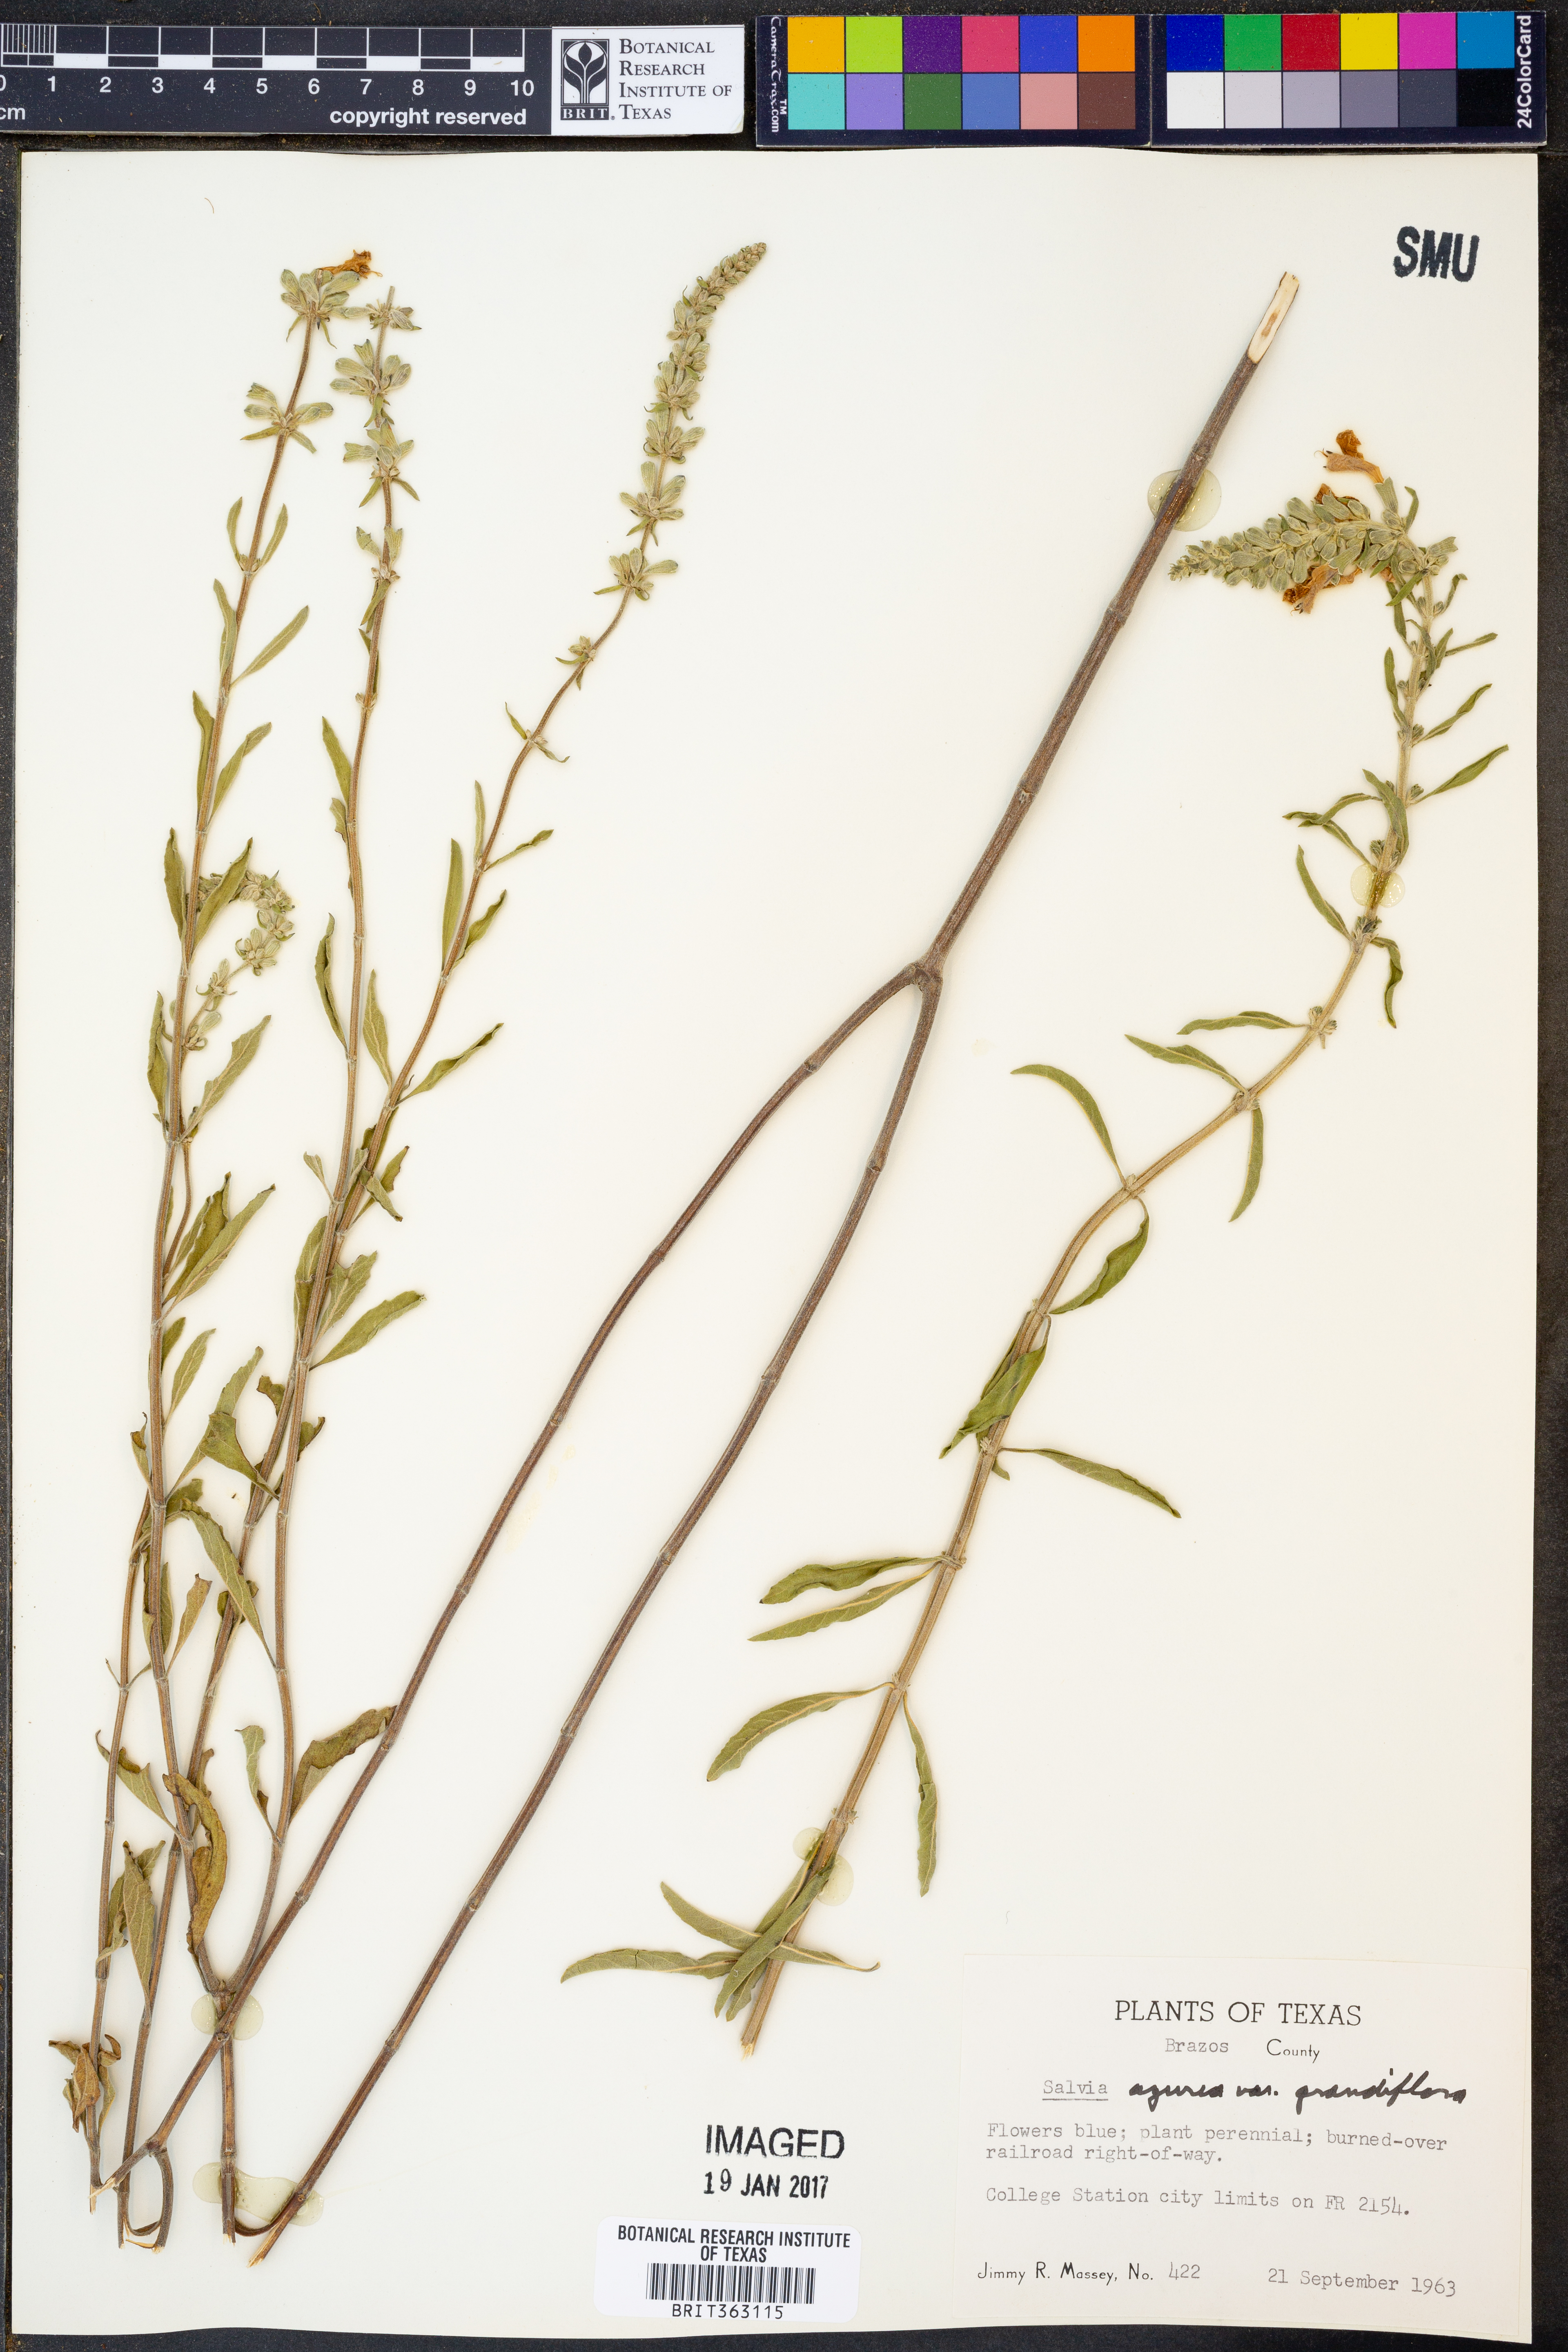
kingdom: Plantae
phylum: Tracheophyta
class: Magnoliopsida
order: Lamiales
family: Lamiaceae
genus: Salvia
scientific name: Salvia azurea
